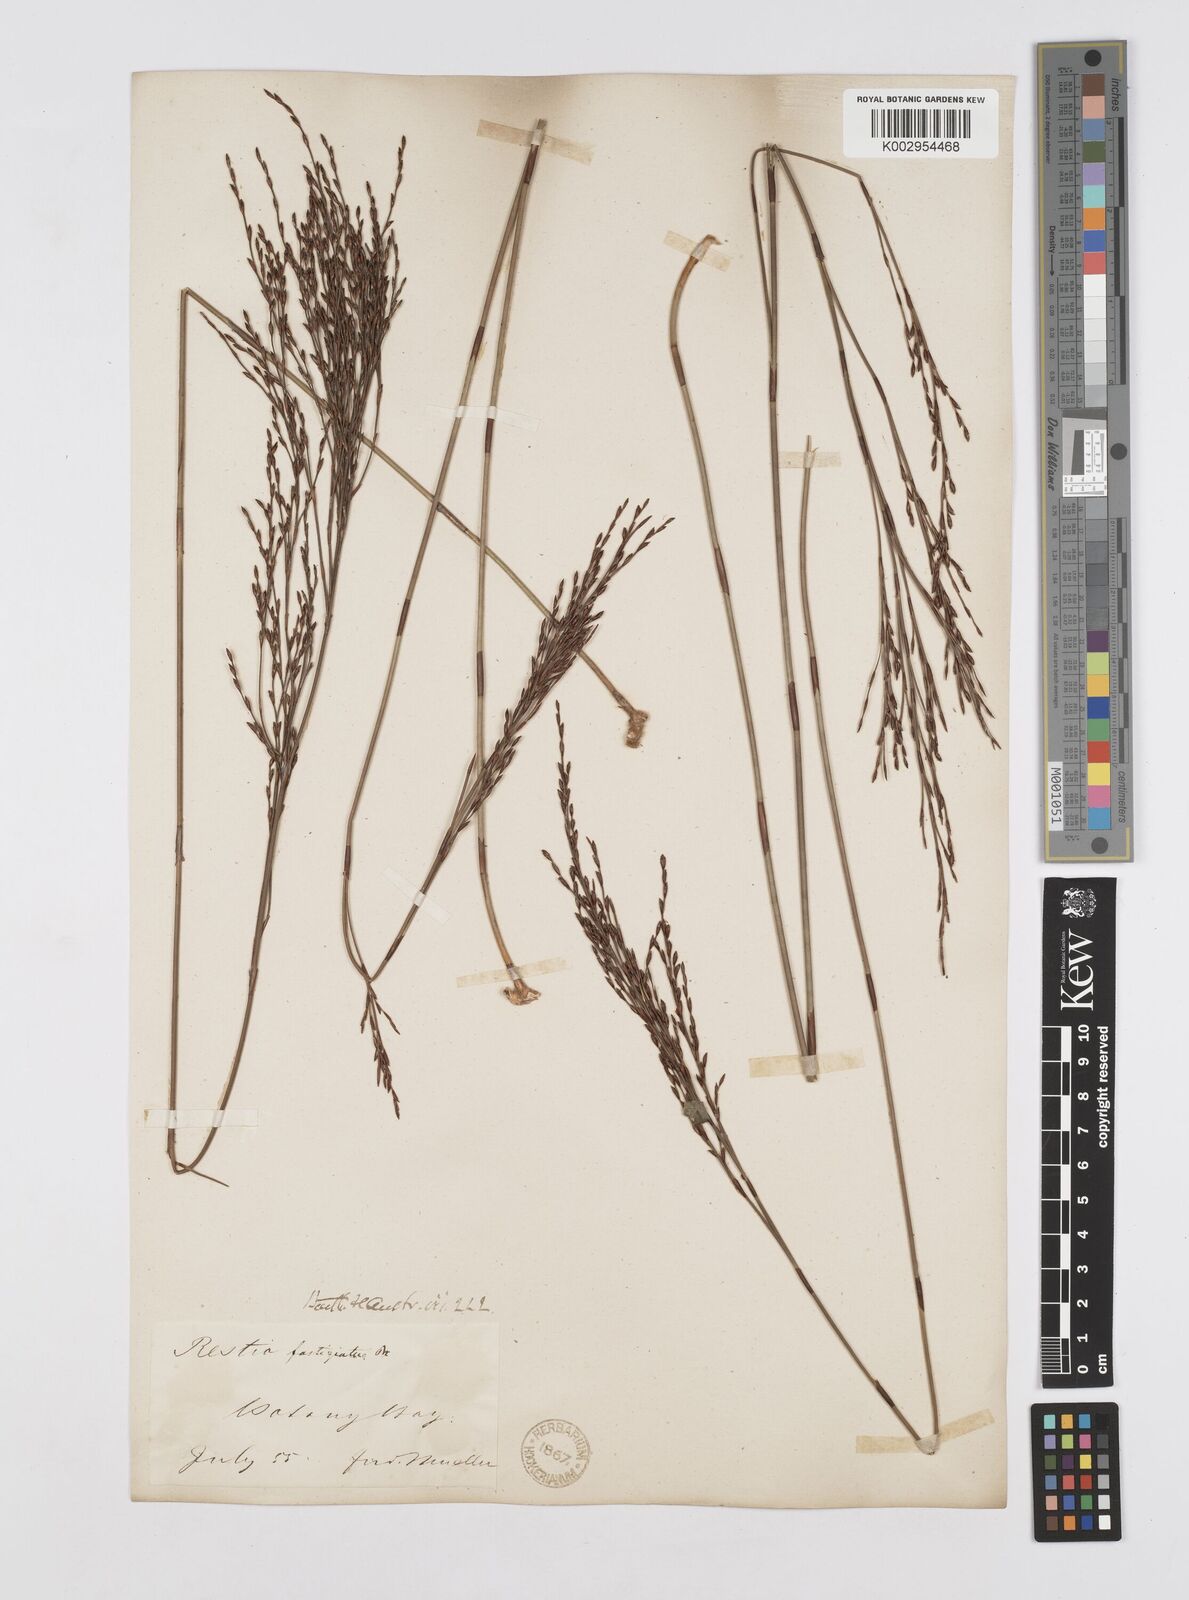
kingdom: Plantae
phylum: Tracheophyta
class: Liliopsida
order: Poales
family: Restionaceae
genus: Chordifex
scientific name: Chordifex fastigiatus
